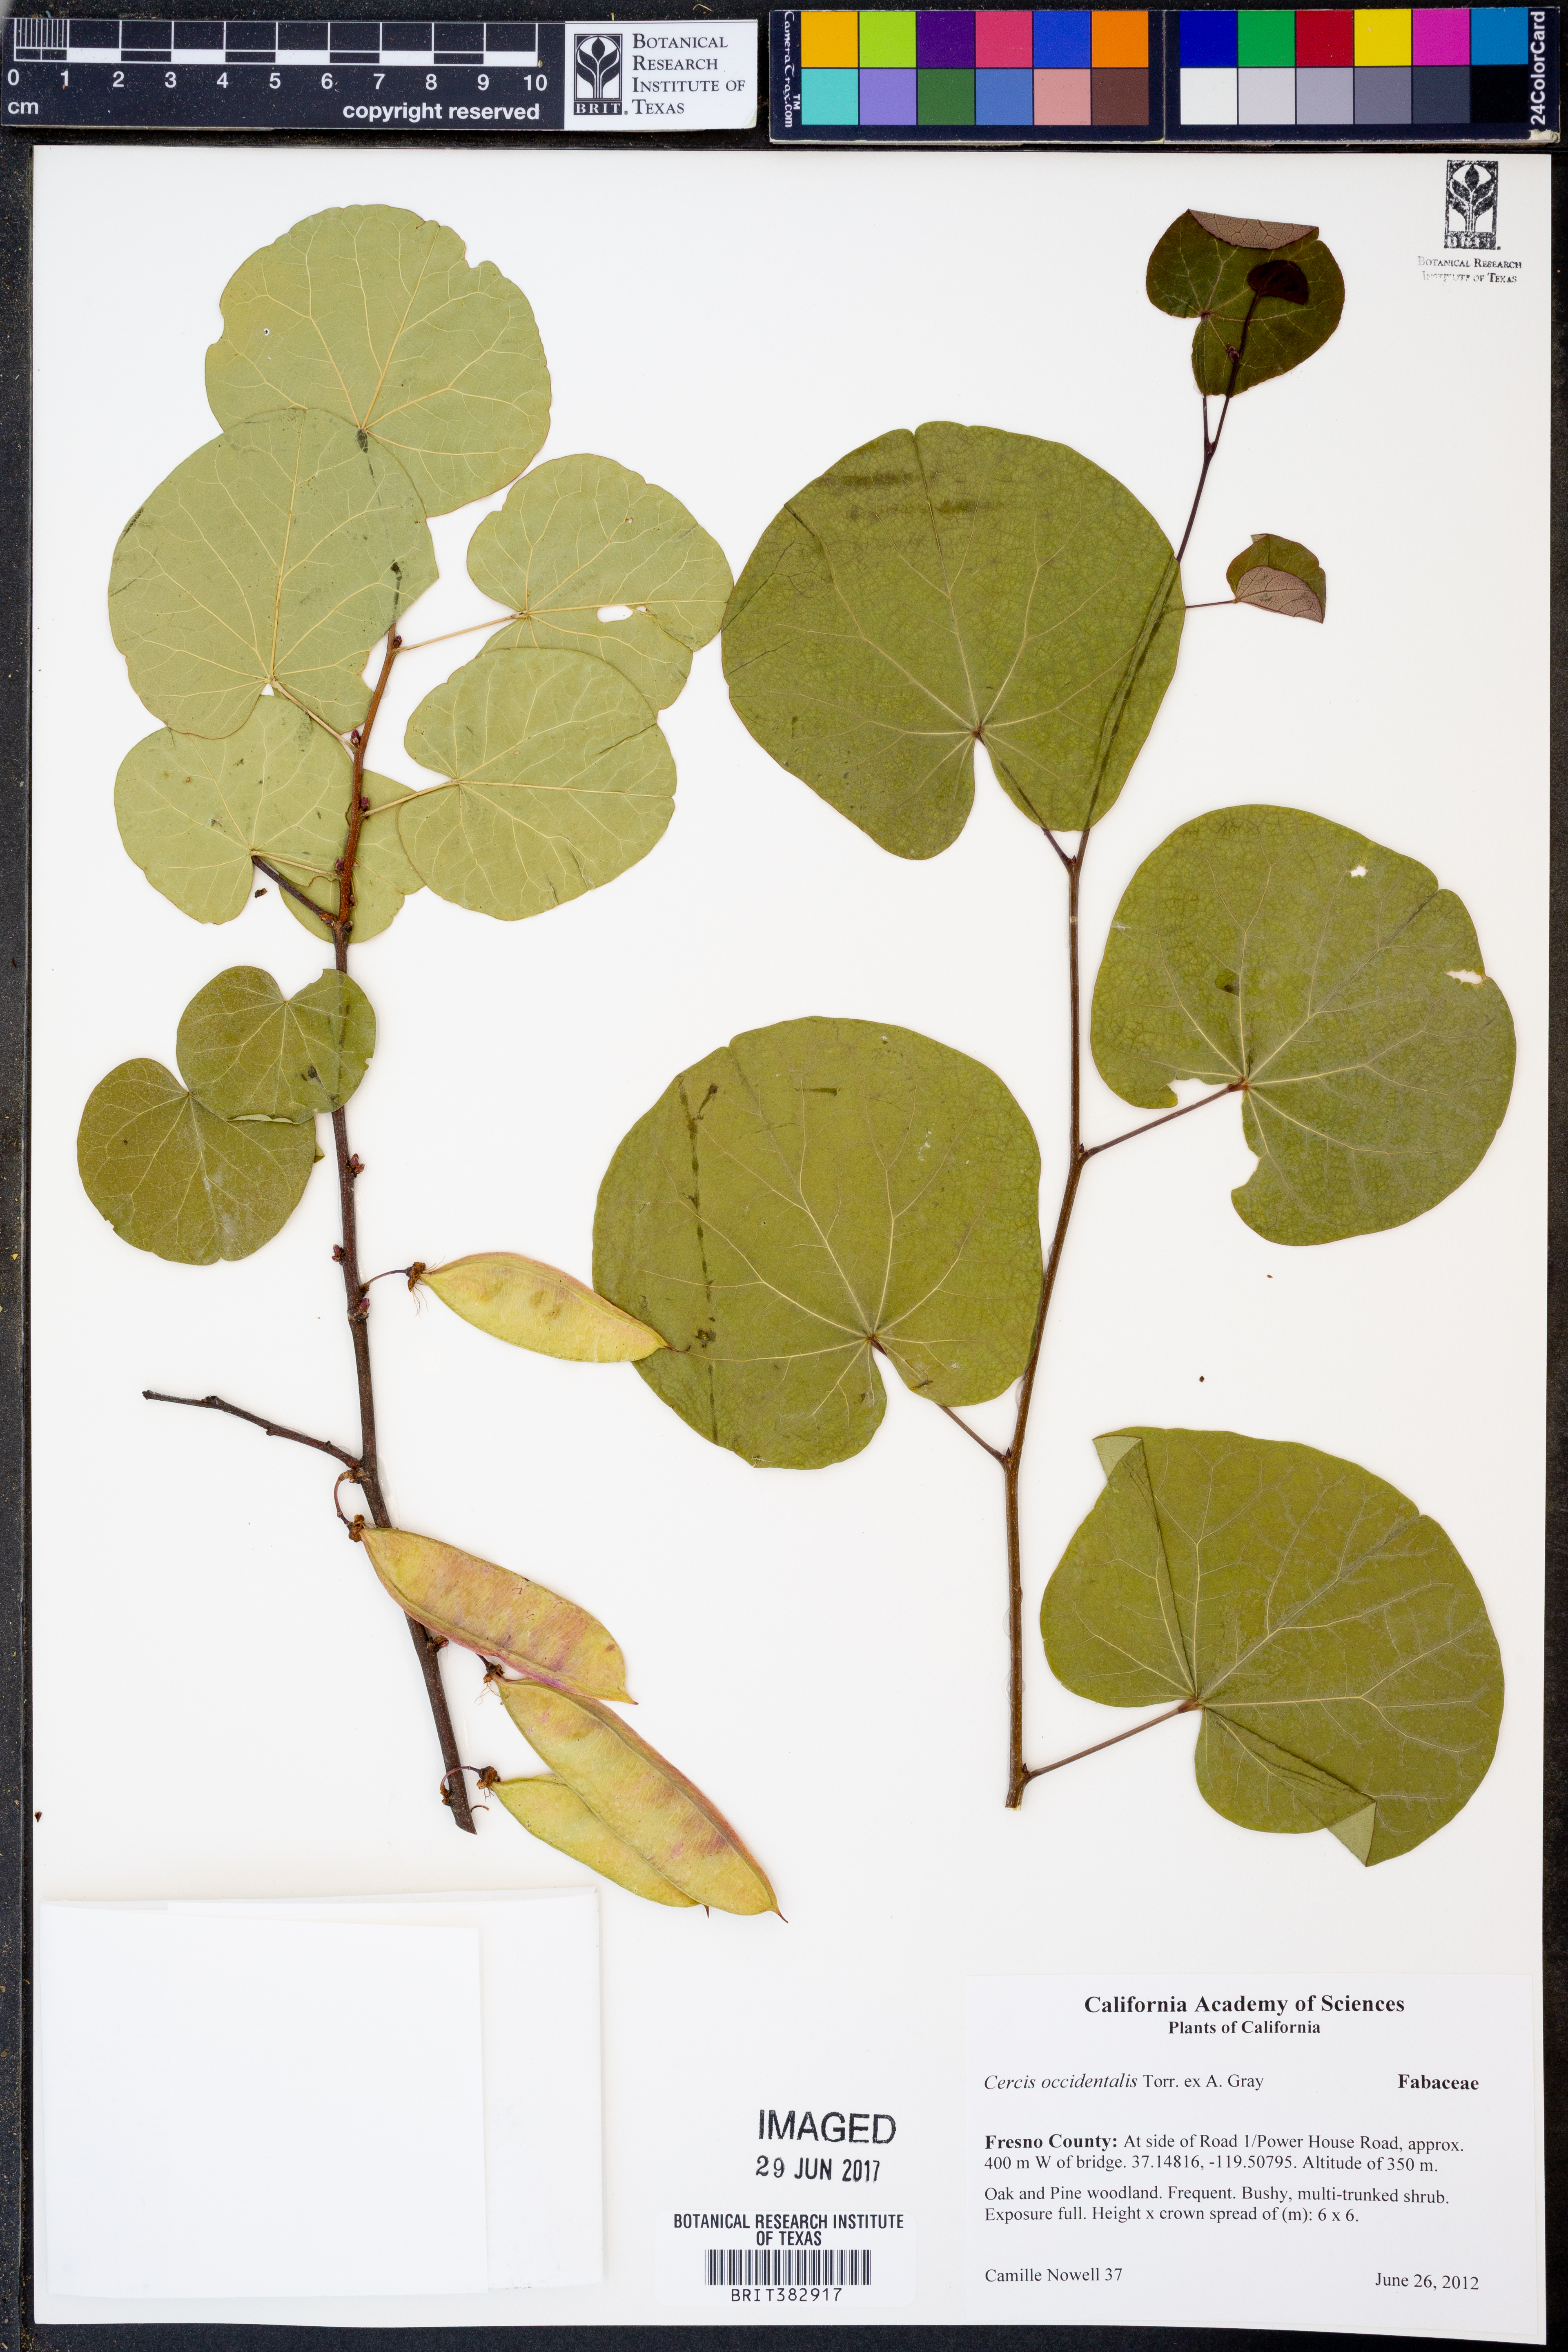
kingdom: Plantae
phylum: Tracheophyta
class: Magnoliopsida
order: Fabales
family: Fabaceae
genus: Cercis
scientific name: Cercis occidentalis
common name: California redbud
